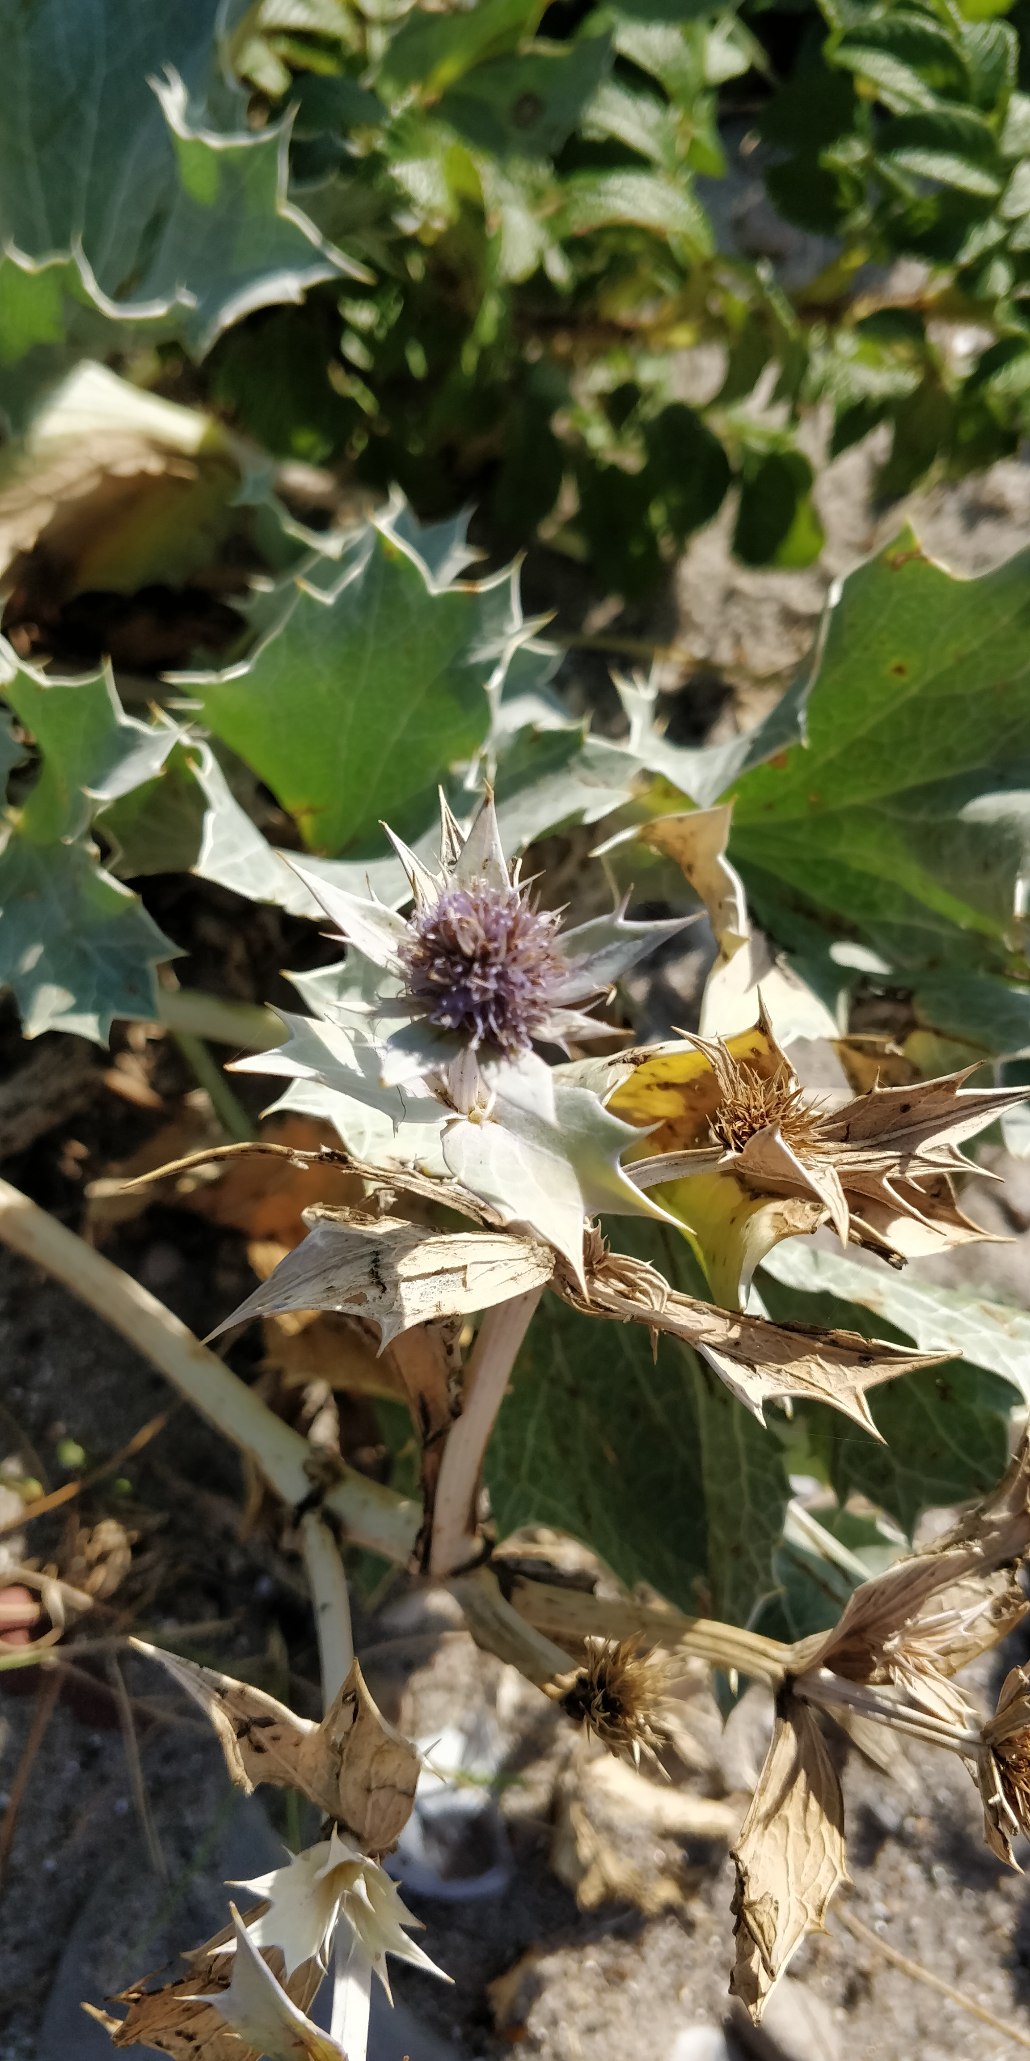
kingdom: Plantae
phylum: Tracheophyta
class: Magnoliopsida
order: Apiales
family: Apiaceae
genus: Eryngium
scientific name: Eryngium maritimum
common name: Strand-mandstro
